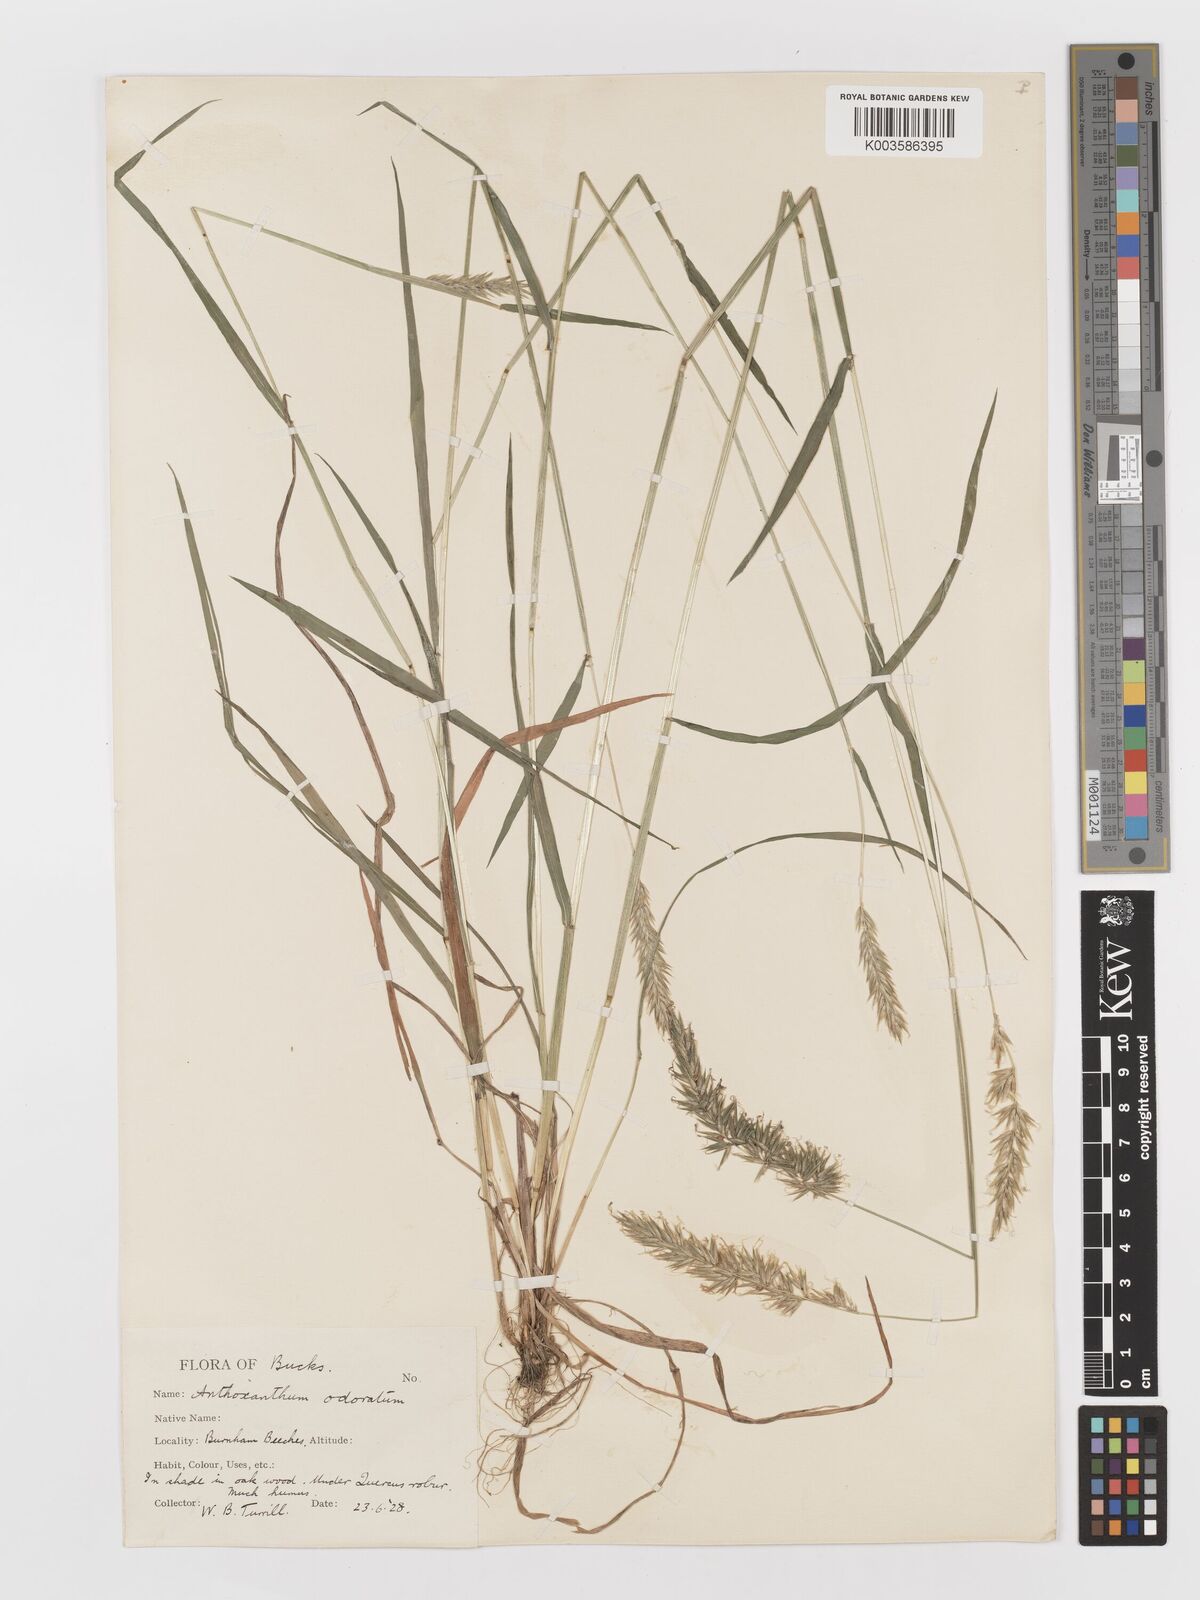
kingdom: Plantae
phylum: Tracheophyta
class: Liliopsida
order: Poales
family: Poaceae
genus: Anthoxanthum
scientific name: Anthoxanthum odoratum
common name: Sweet vernalgrass
